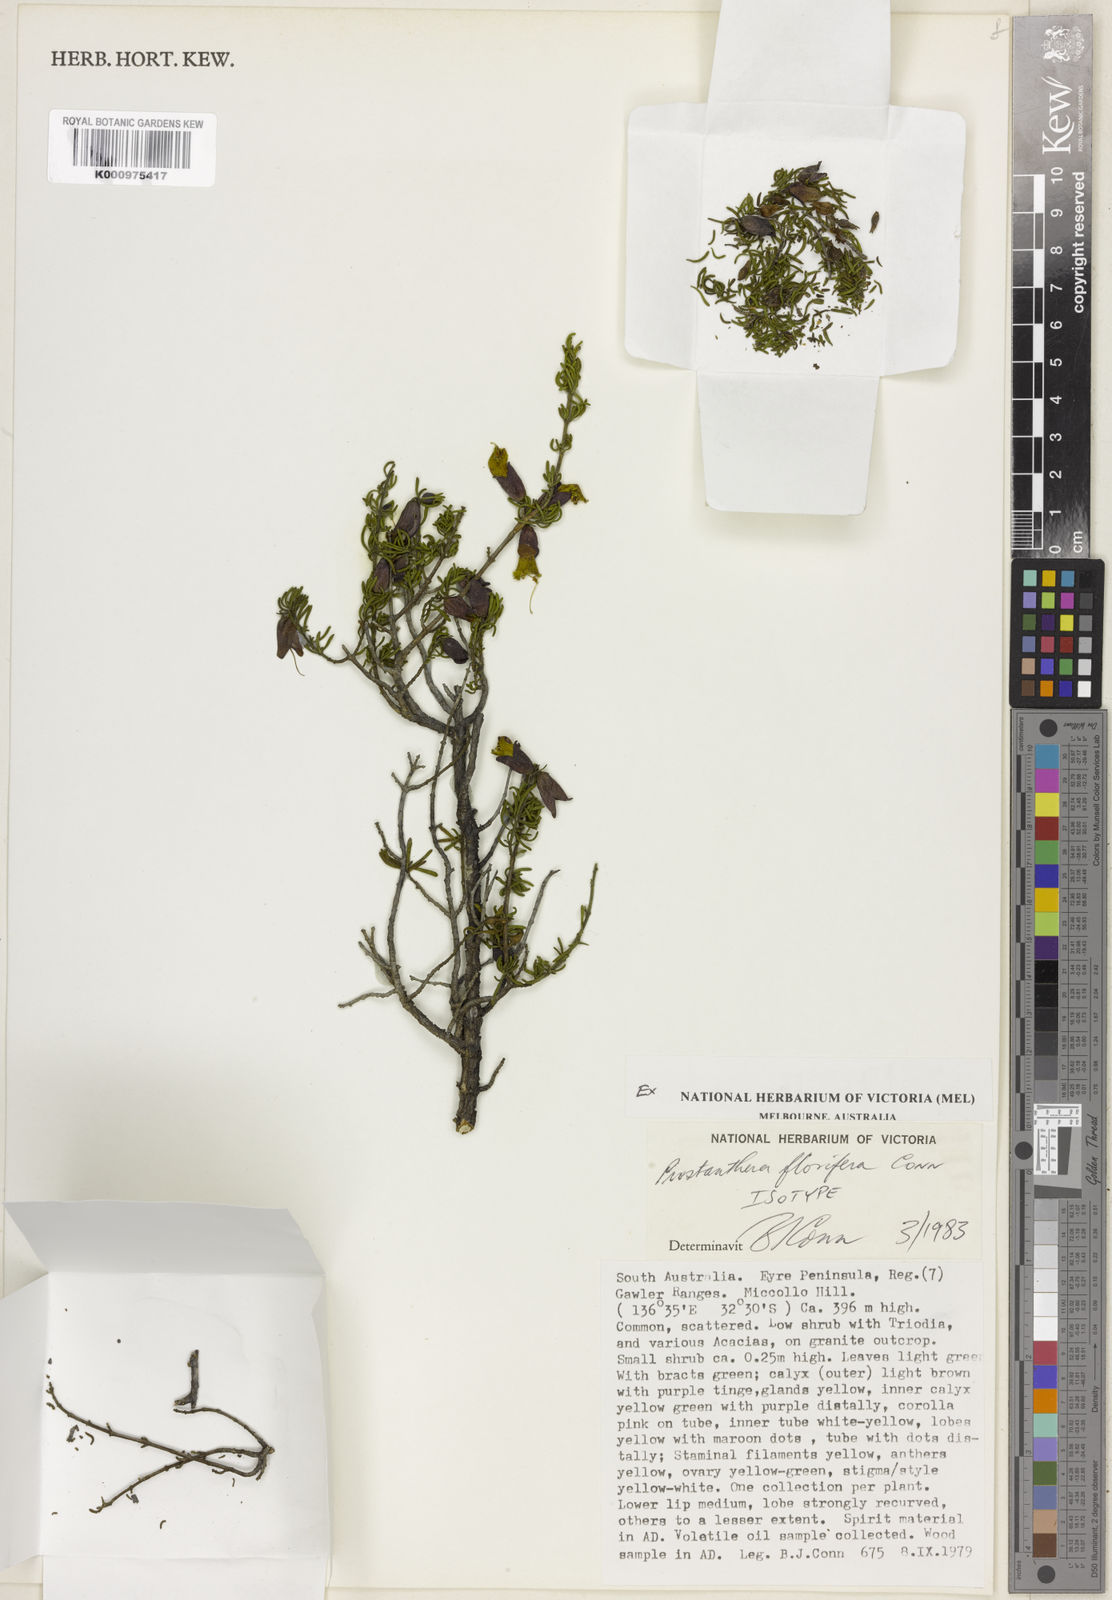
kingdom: Plantae
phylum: Tracheophyta
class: Magnoliopsida
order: Lamiales
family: Lamiaceae
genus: Prostanthera
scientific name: Prostanthera florifera
